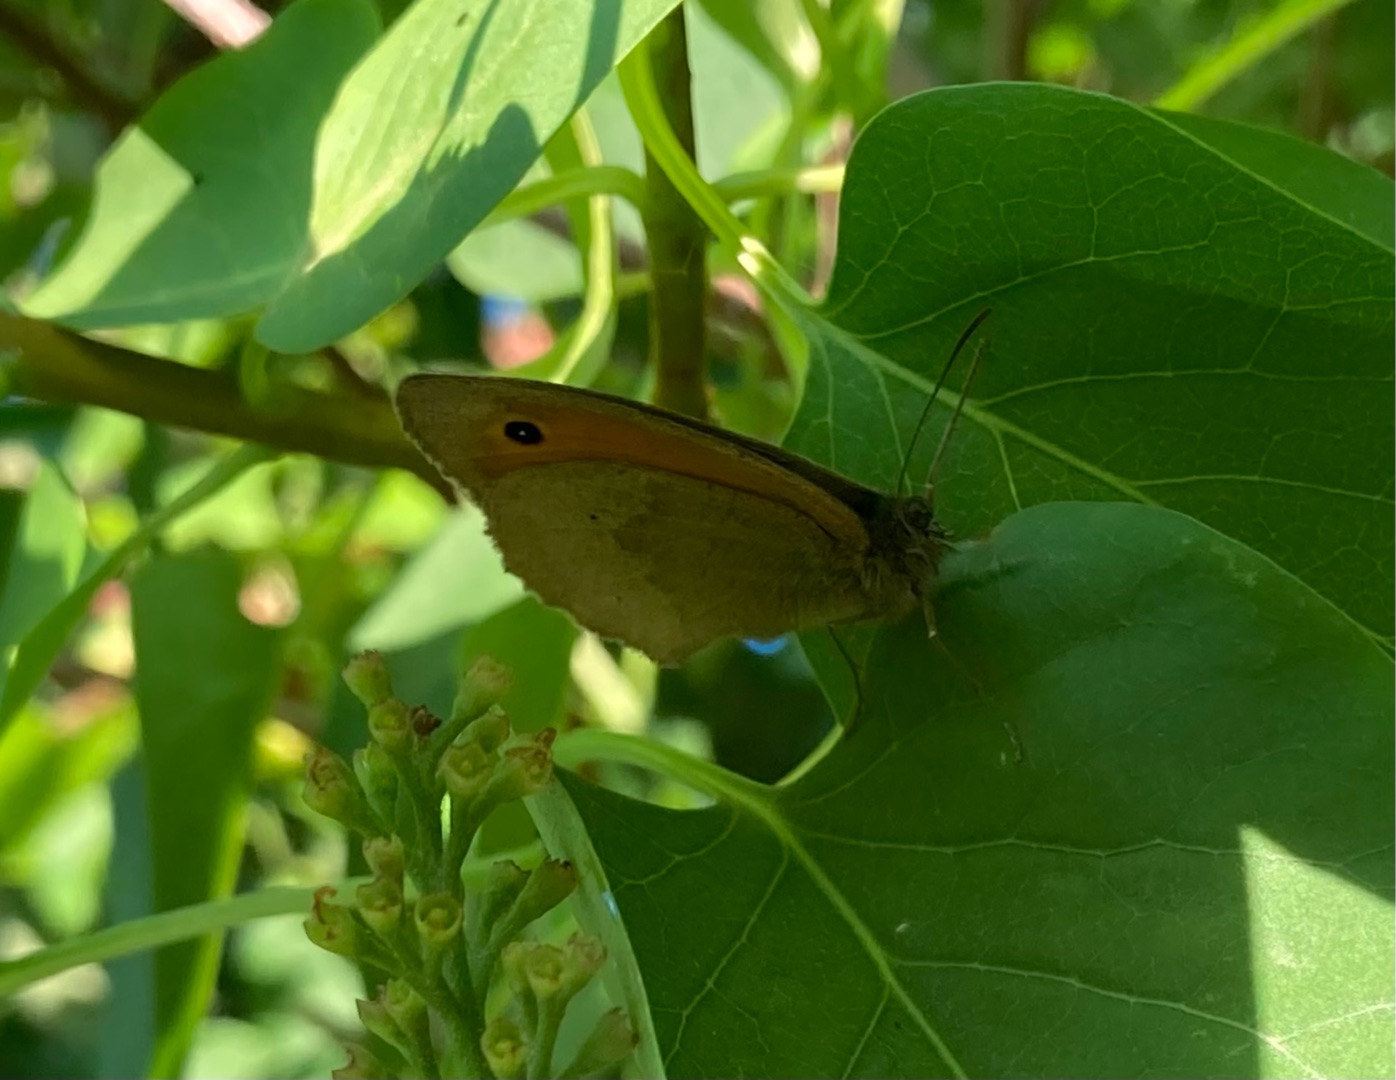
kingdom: Animalia
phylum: Arthropoda
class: Insecta
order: Lepidoptera
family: Nymphalidae
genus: Maniola
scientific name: Maniola jurtina
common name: Græsrandøje
